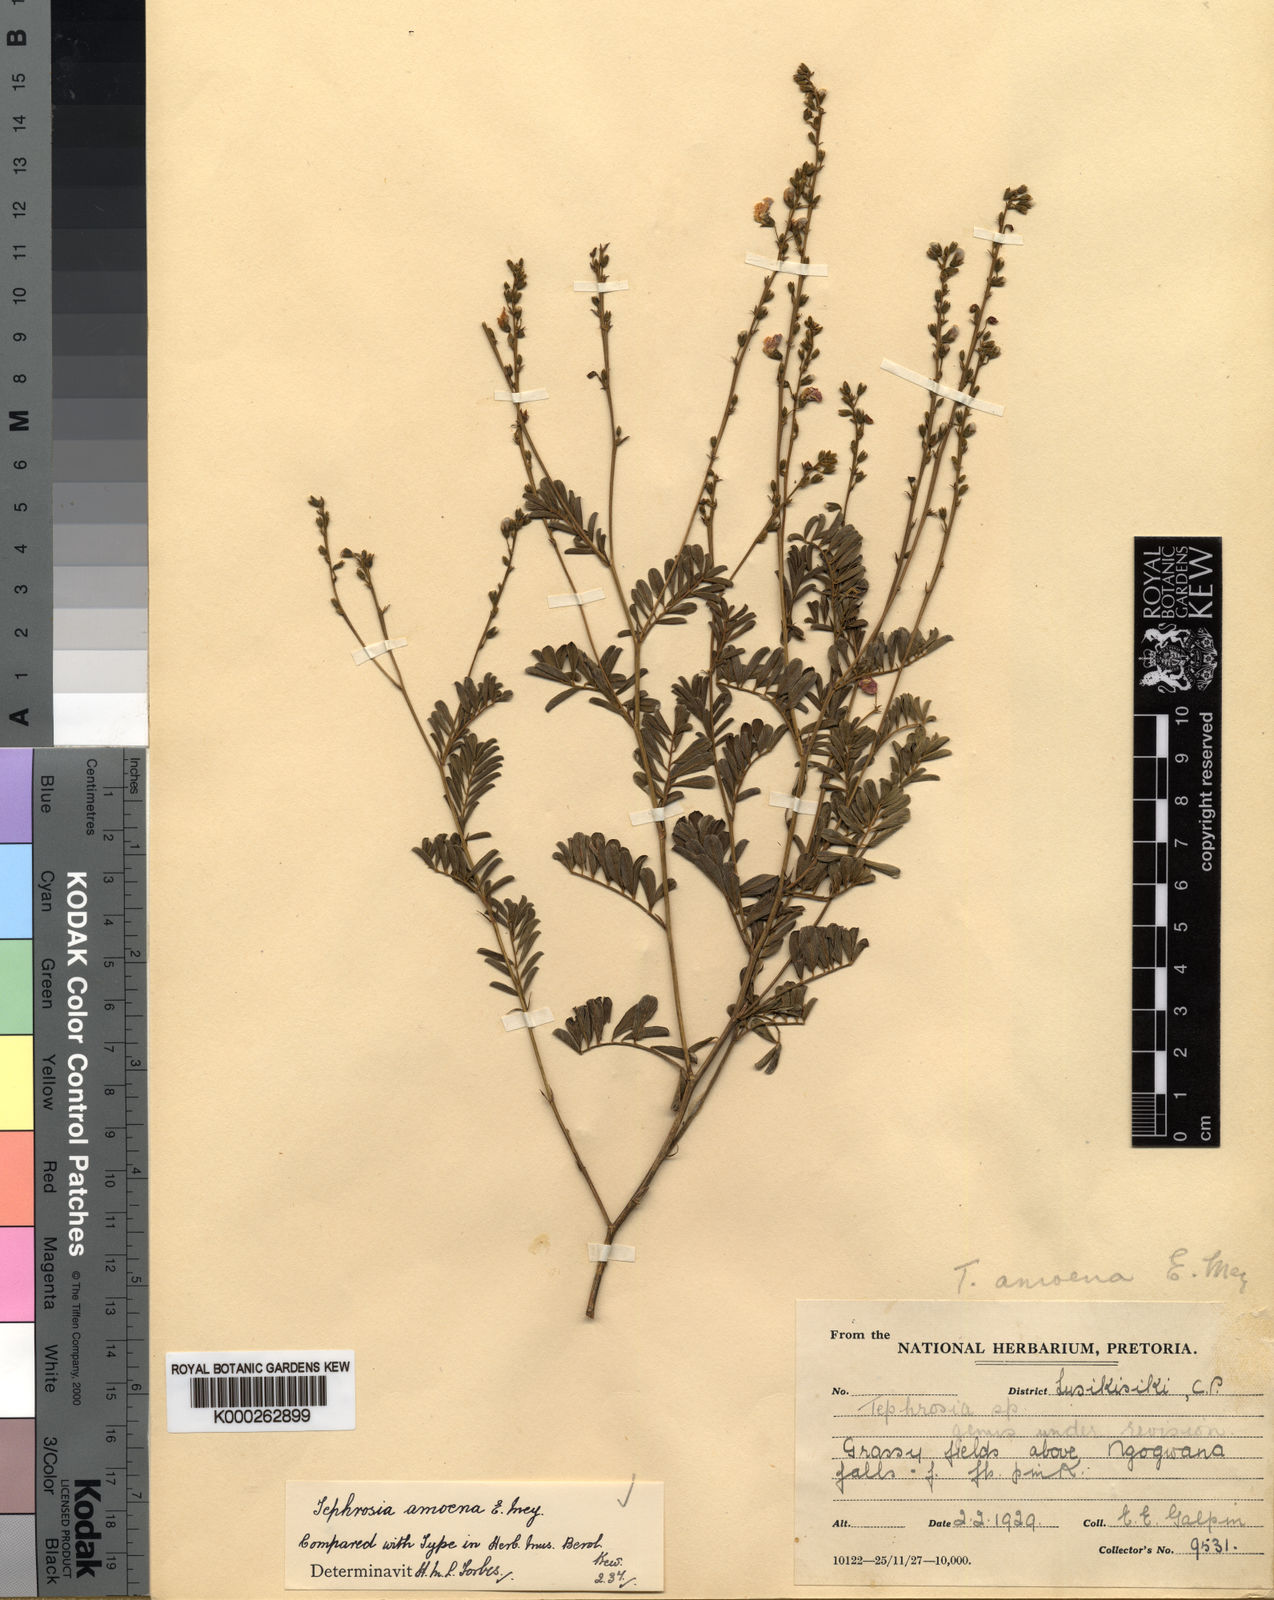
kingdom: Plantae
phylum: Tracheophyta
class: Magnoliopsida
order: Fabales
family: Fabaceae
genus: Tephrosia
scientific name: Tephrosia amoena
